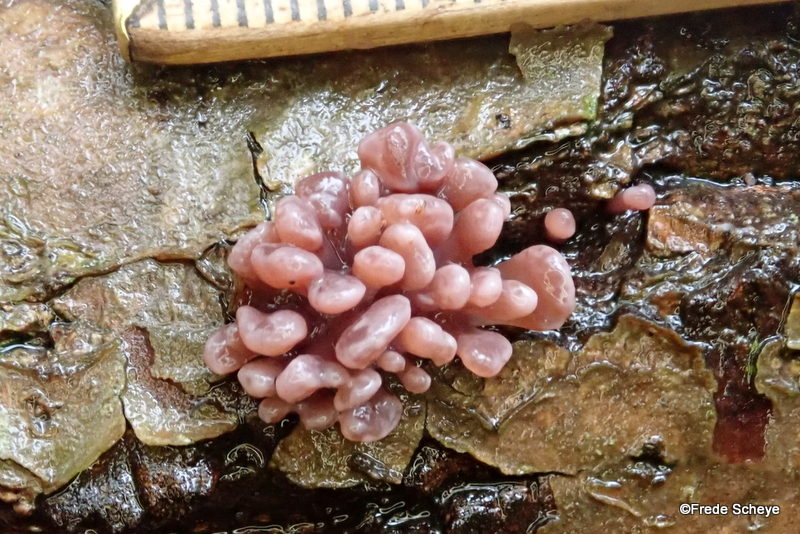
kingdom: Fungi
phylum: Ascomycota
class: Leotiomycetes
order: Helotiales
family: Gelatinodiscaceae
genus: Ascocoryne
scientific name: Ascocoryne sarcoides
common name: rødlilla sejskive
